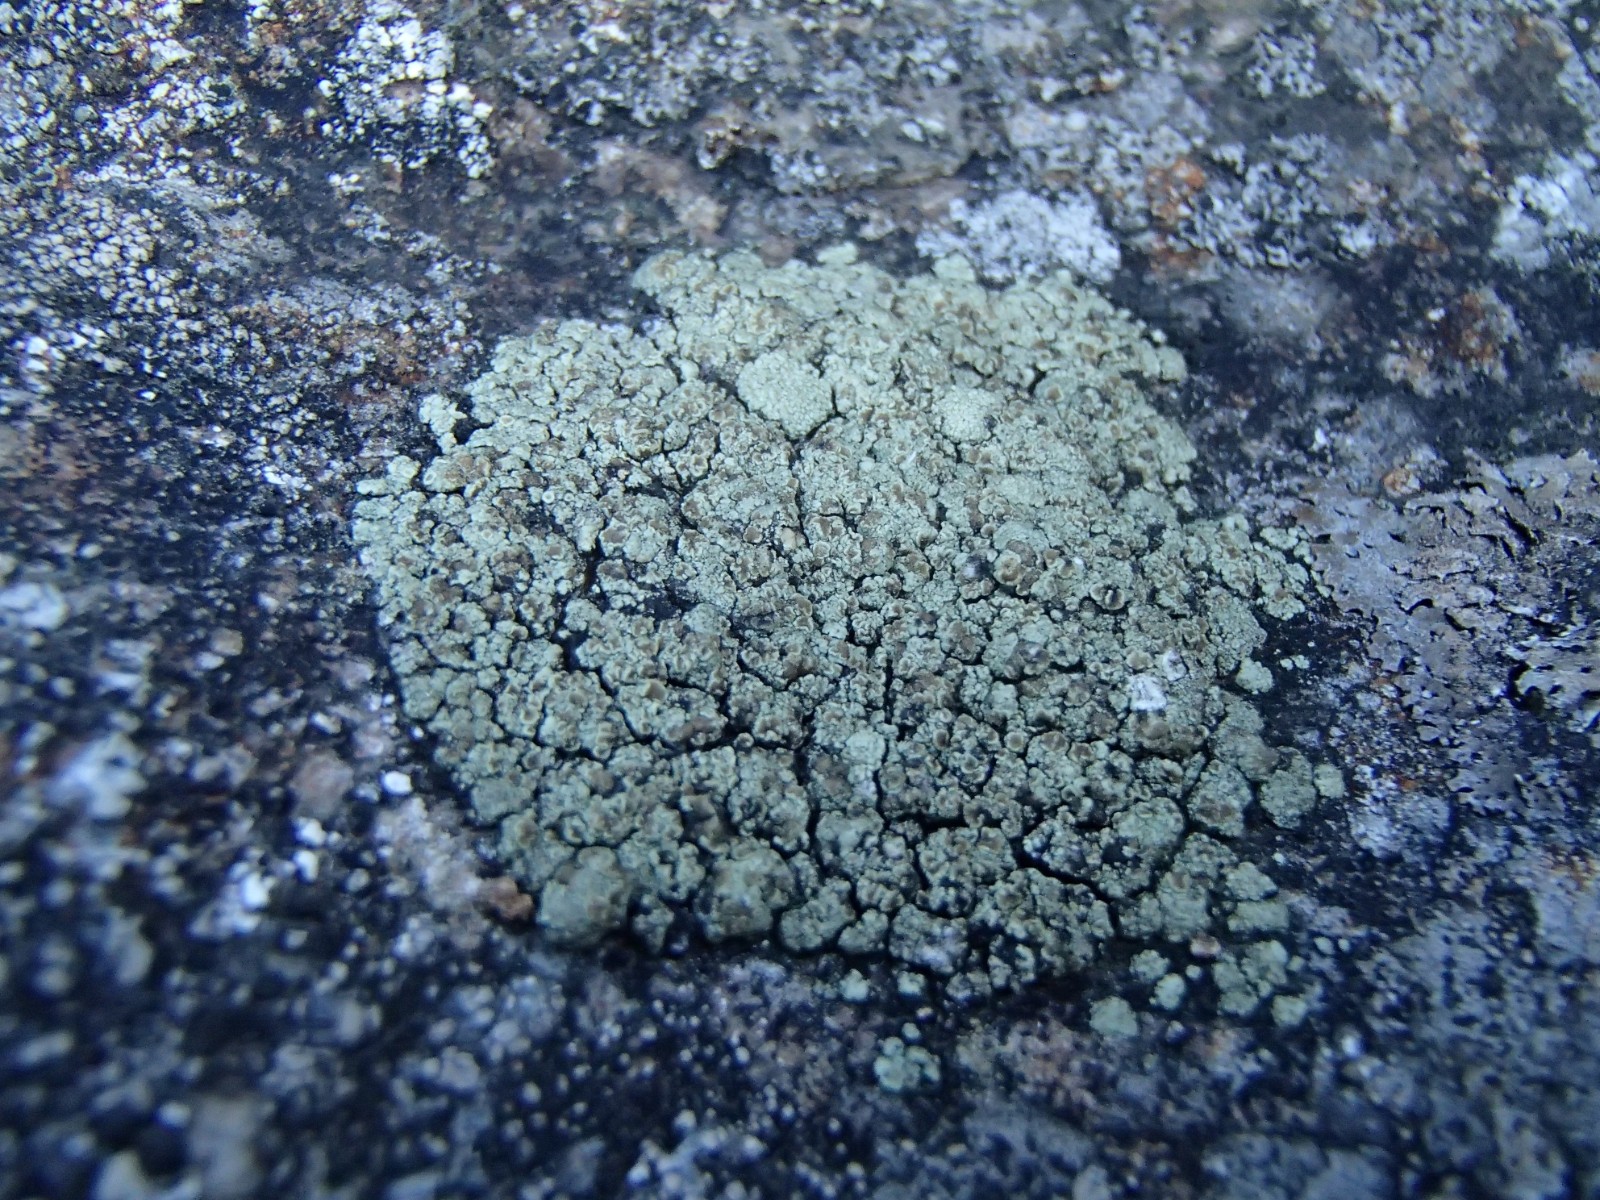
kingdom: Fungi
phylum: Ascomycota
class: Lecanoromycetes
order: Lecanorales
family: Lecanoraceae
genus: Lecanora
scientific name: Lecanora intricata
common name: klippe-kantskivelav
